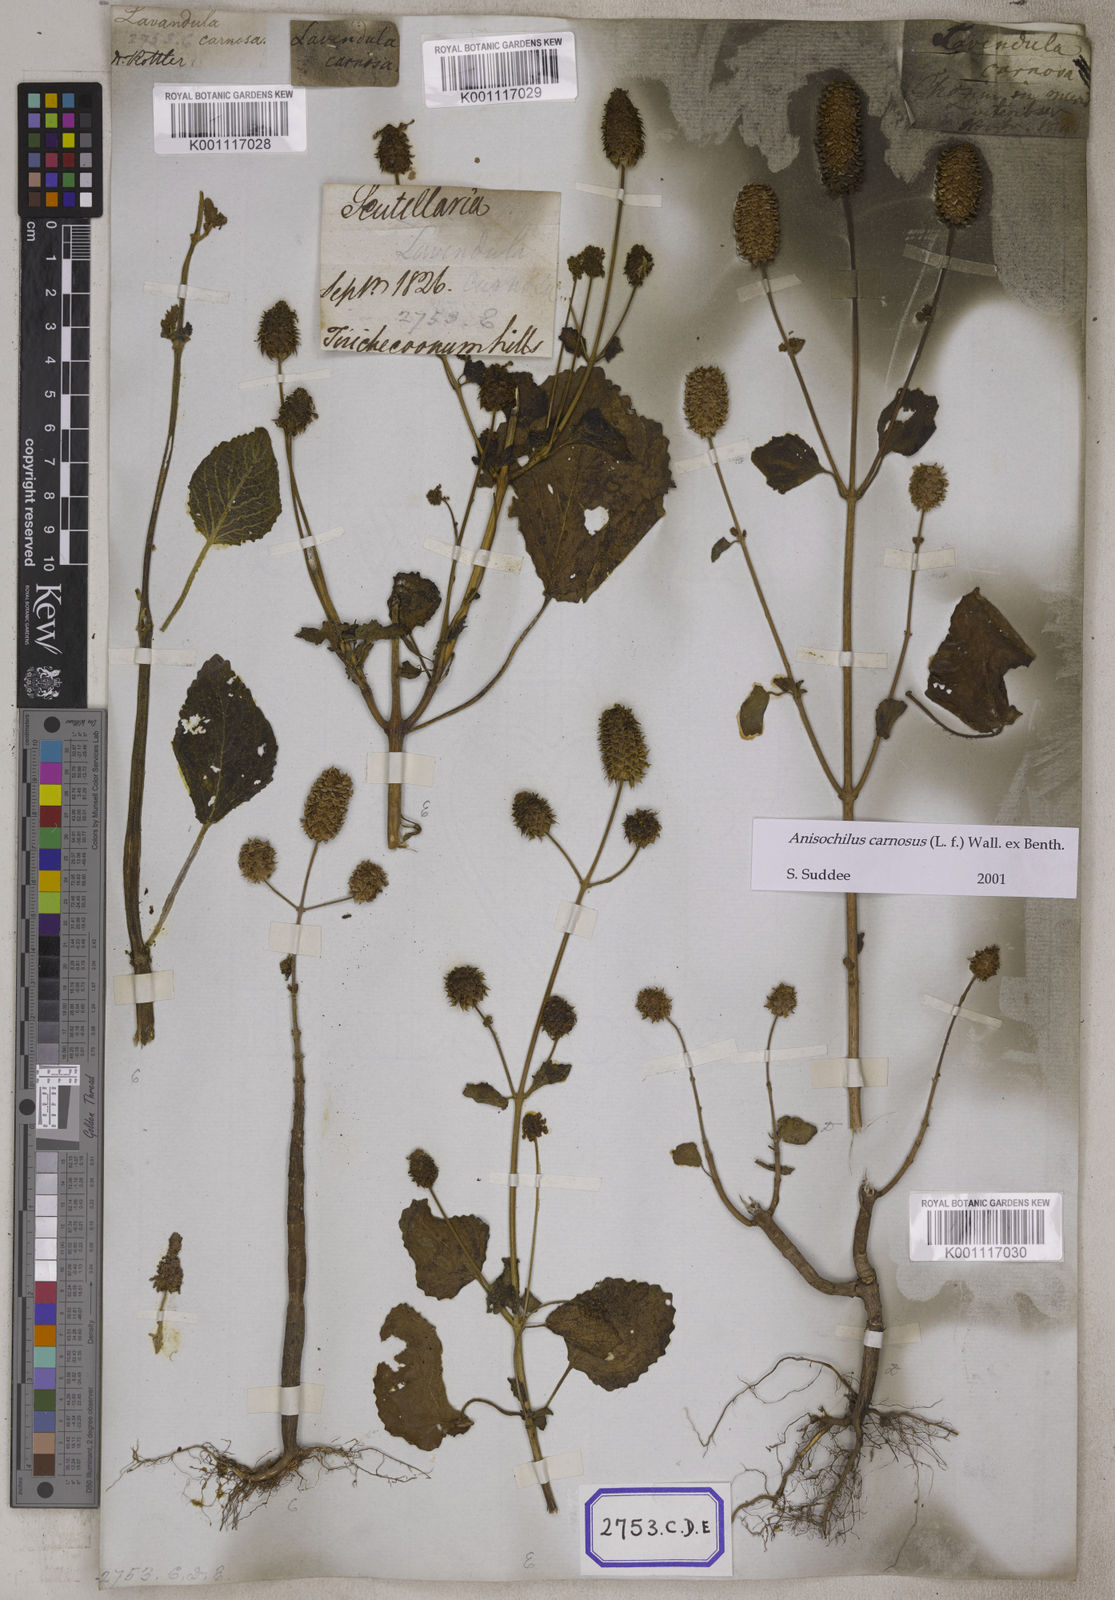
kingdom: Plantae
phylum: Tracheophyta
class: Magnoliopsida
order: Lamiales
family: Lamiaceae
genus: Anisochilus
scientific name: Anisochilus
